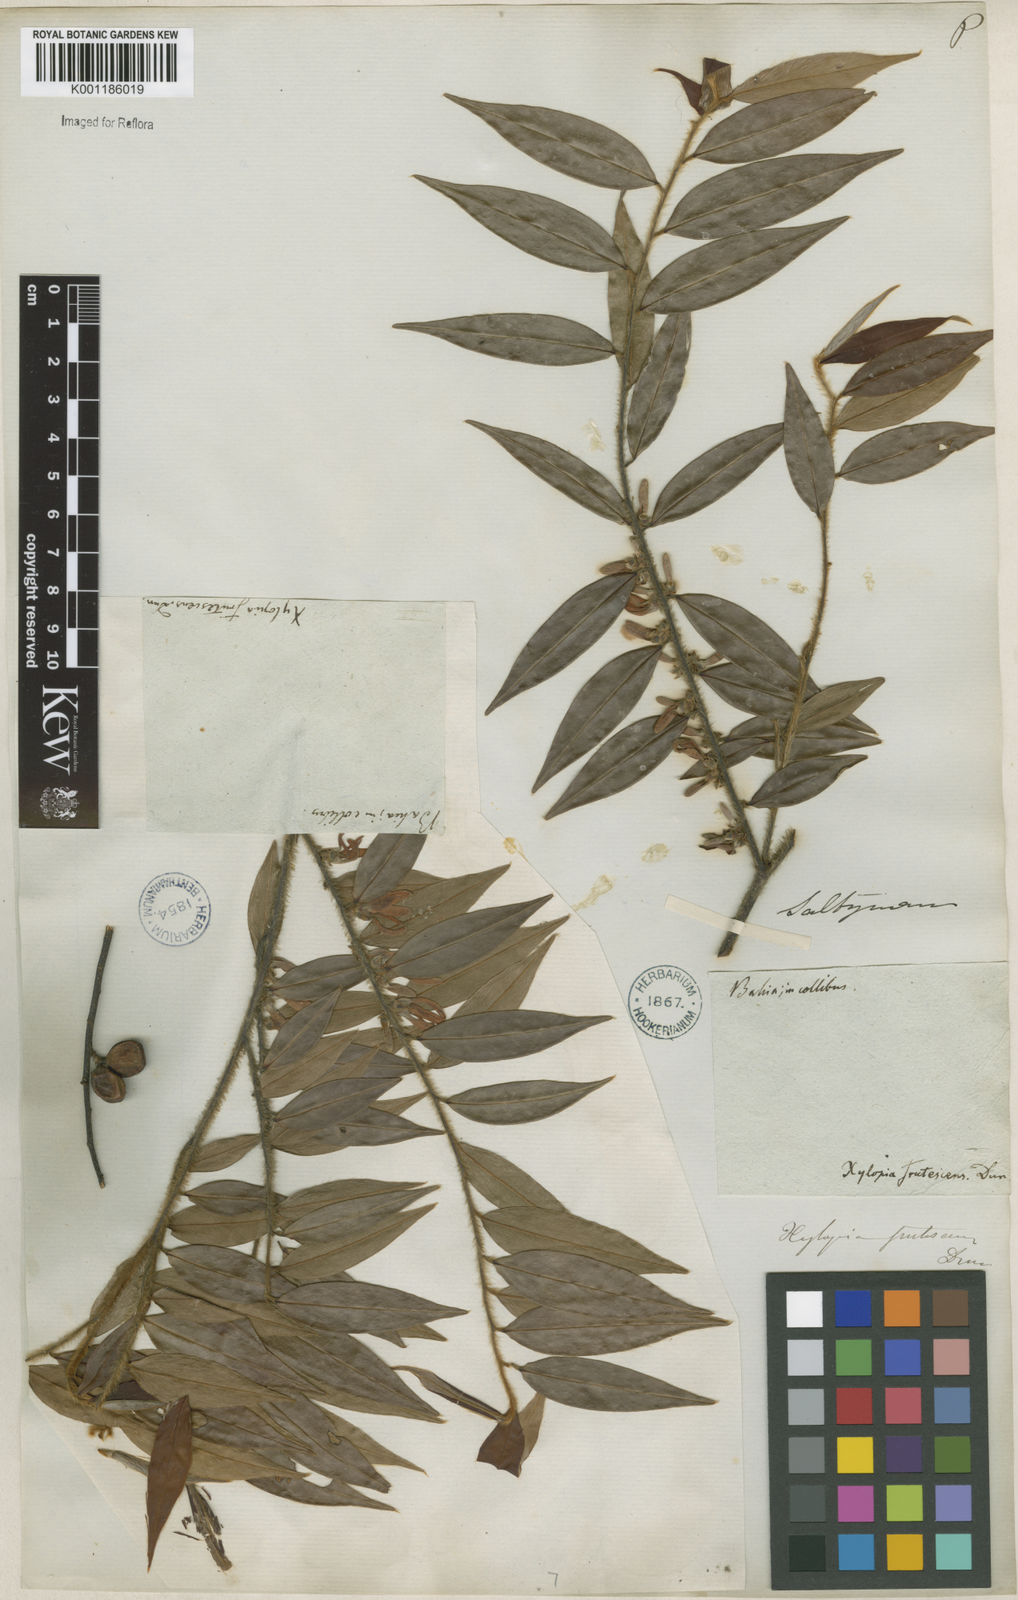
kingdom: Plantae
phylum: Tracheophyta
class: Magnoliopsida
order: Magnoliales
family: Annonaceae
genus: Xylopia
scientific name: Xylopia frutescens
